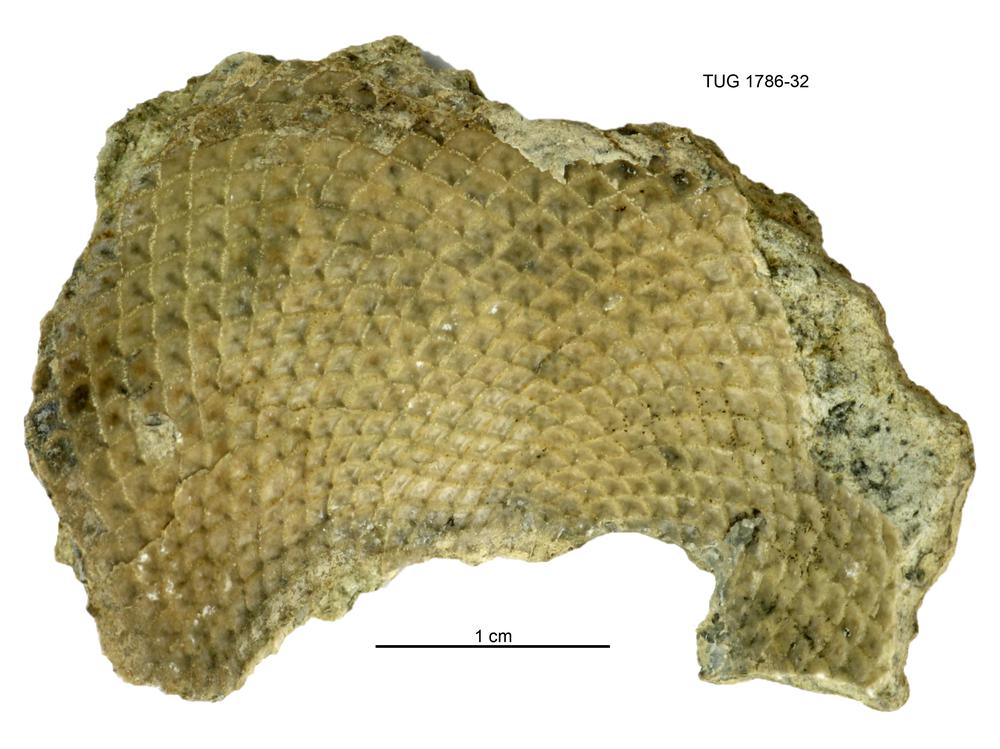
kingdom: Plantae
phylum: Chlorophyta
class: Chlorophyceae
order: Receptaculitales
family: Receptaculitaceae
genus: Receptaculites
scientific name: Receptaculites
